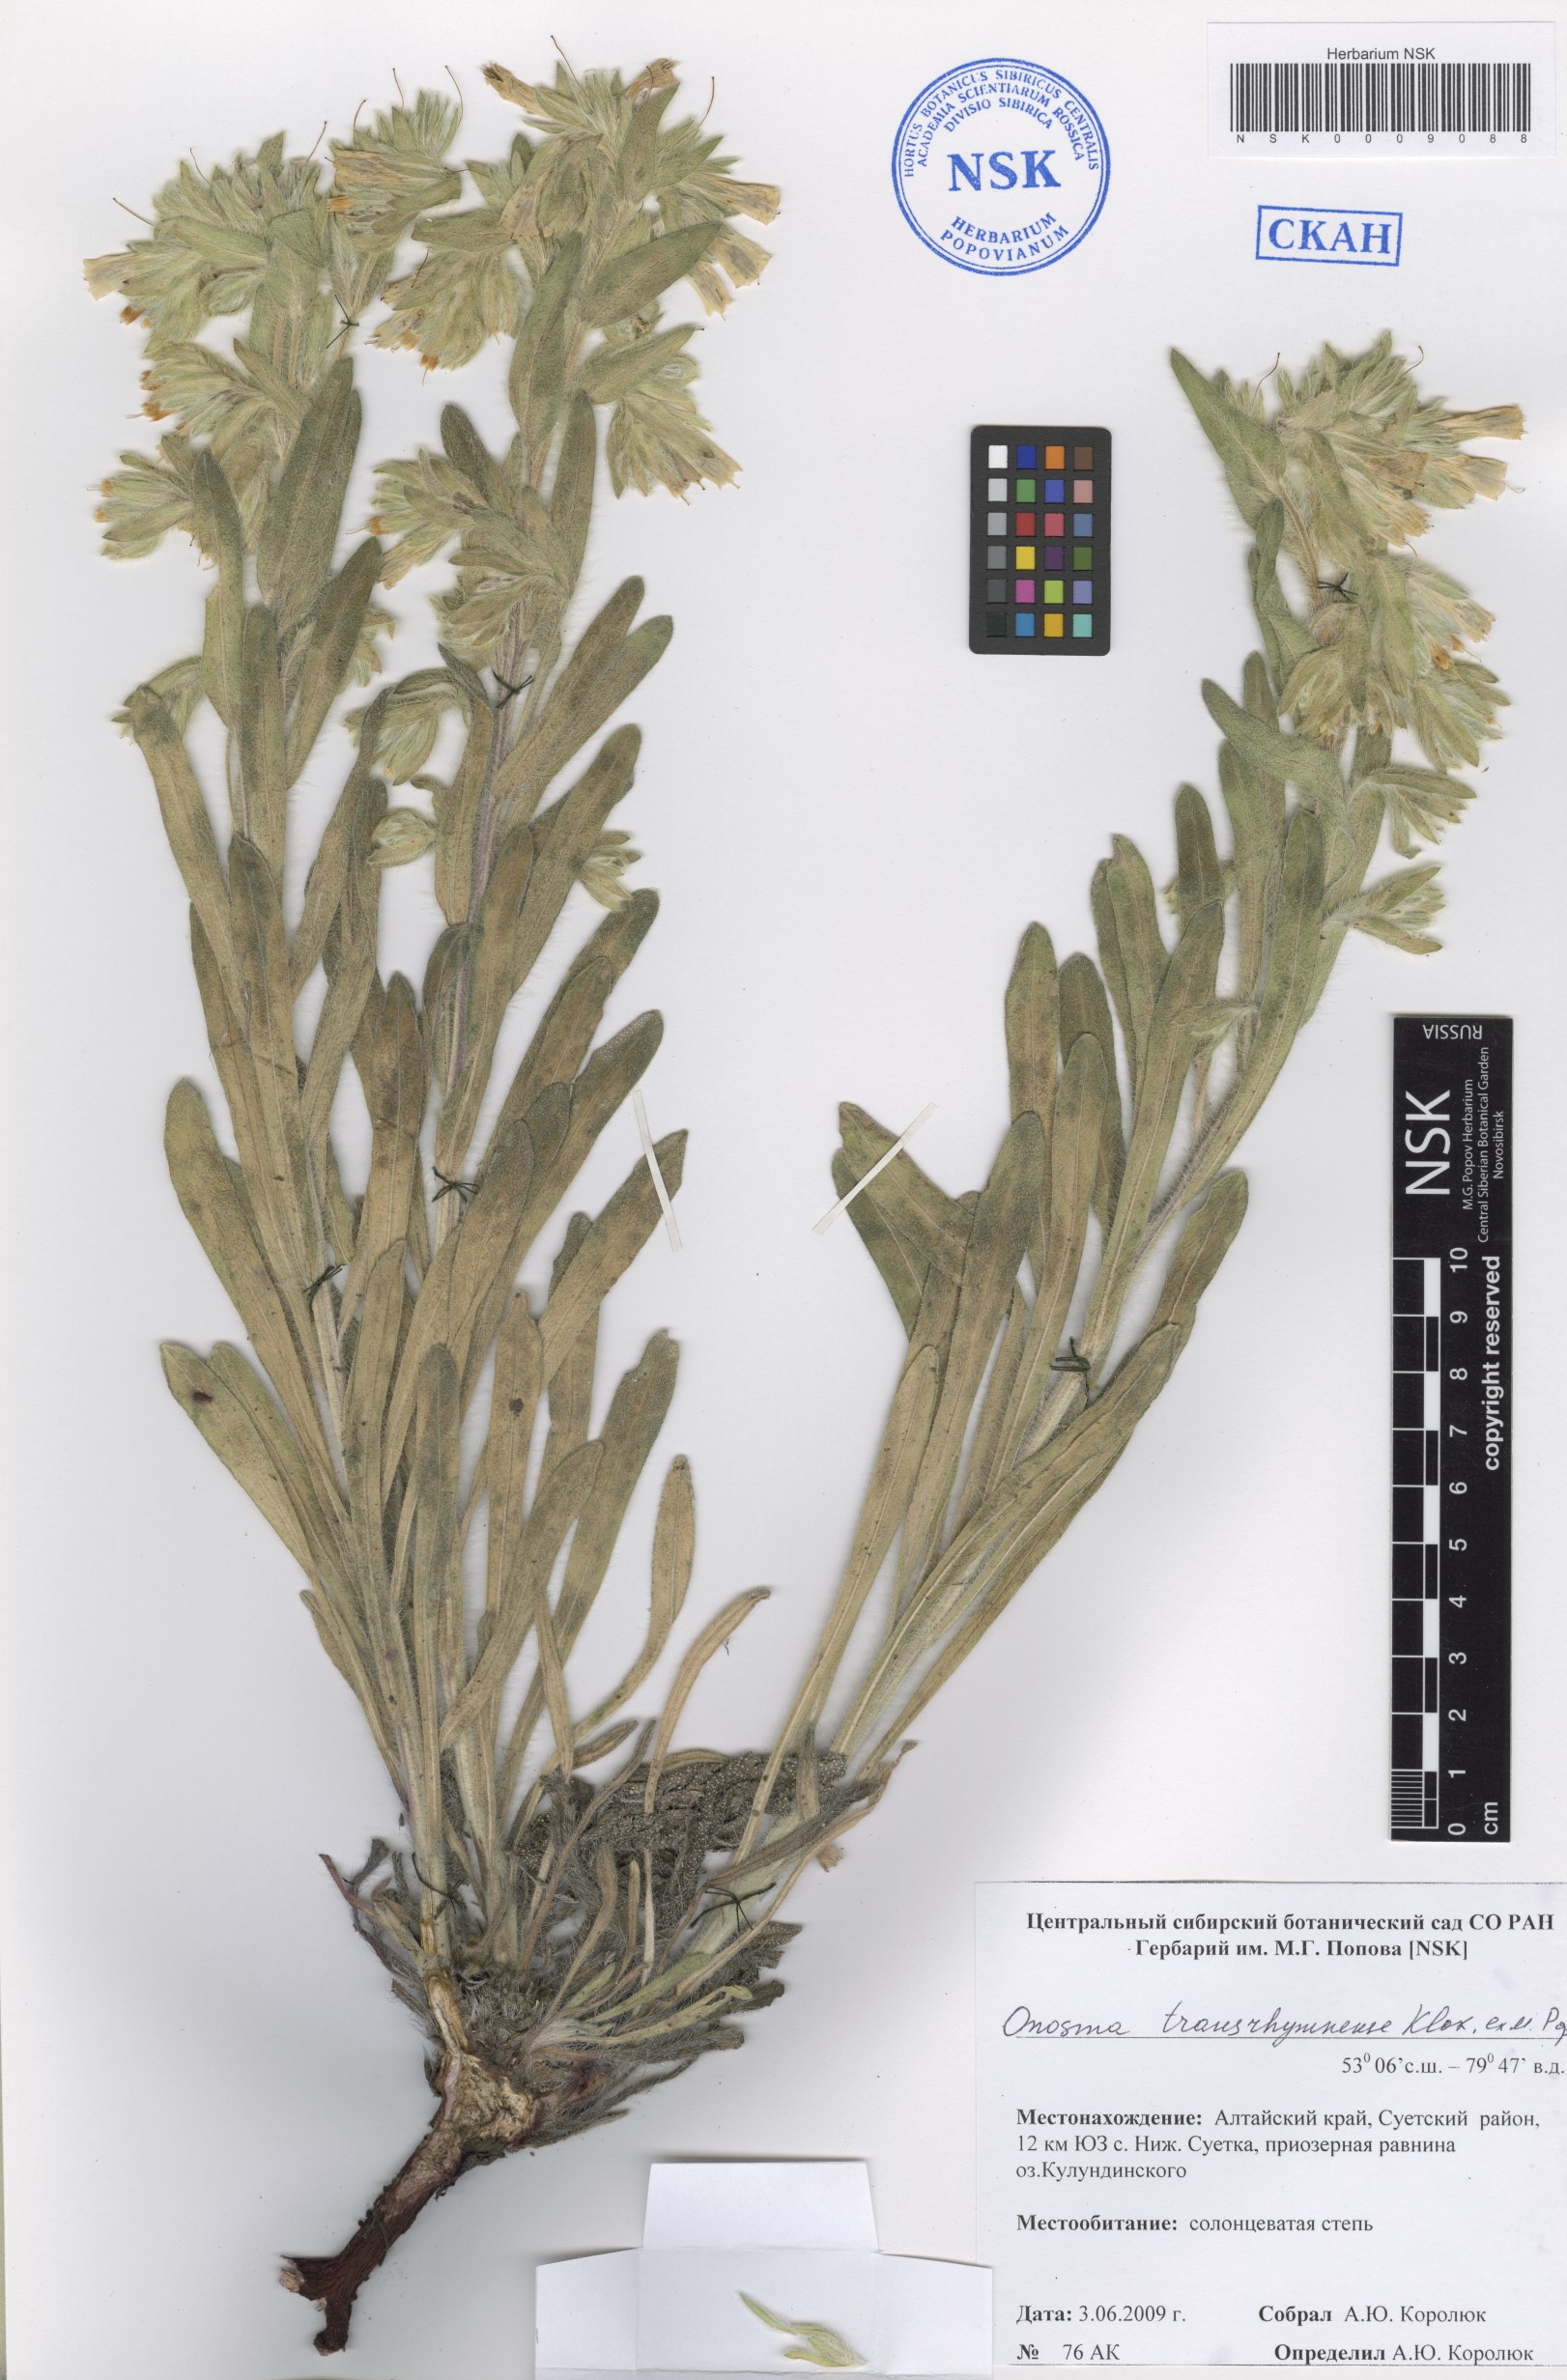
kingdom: Plantae
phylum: Tracheophyta
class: Magnoliopsida
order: Boraginales
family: Boraginaceae
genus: Onosma
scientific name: Onosma transrhymnense
